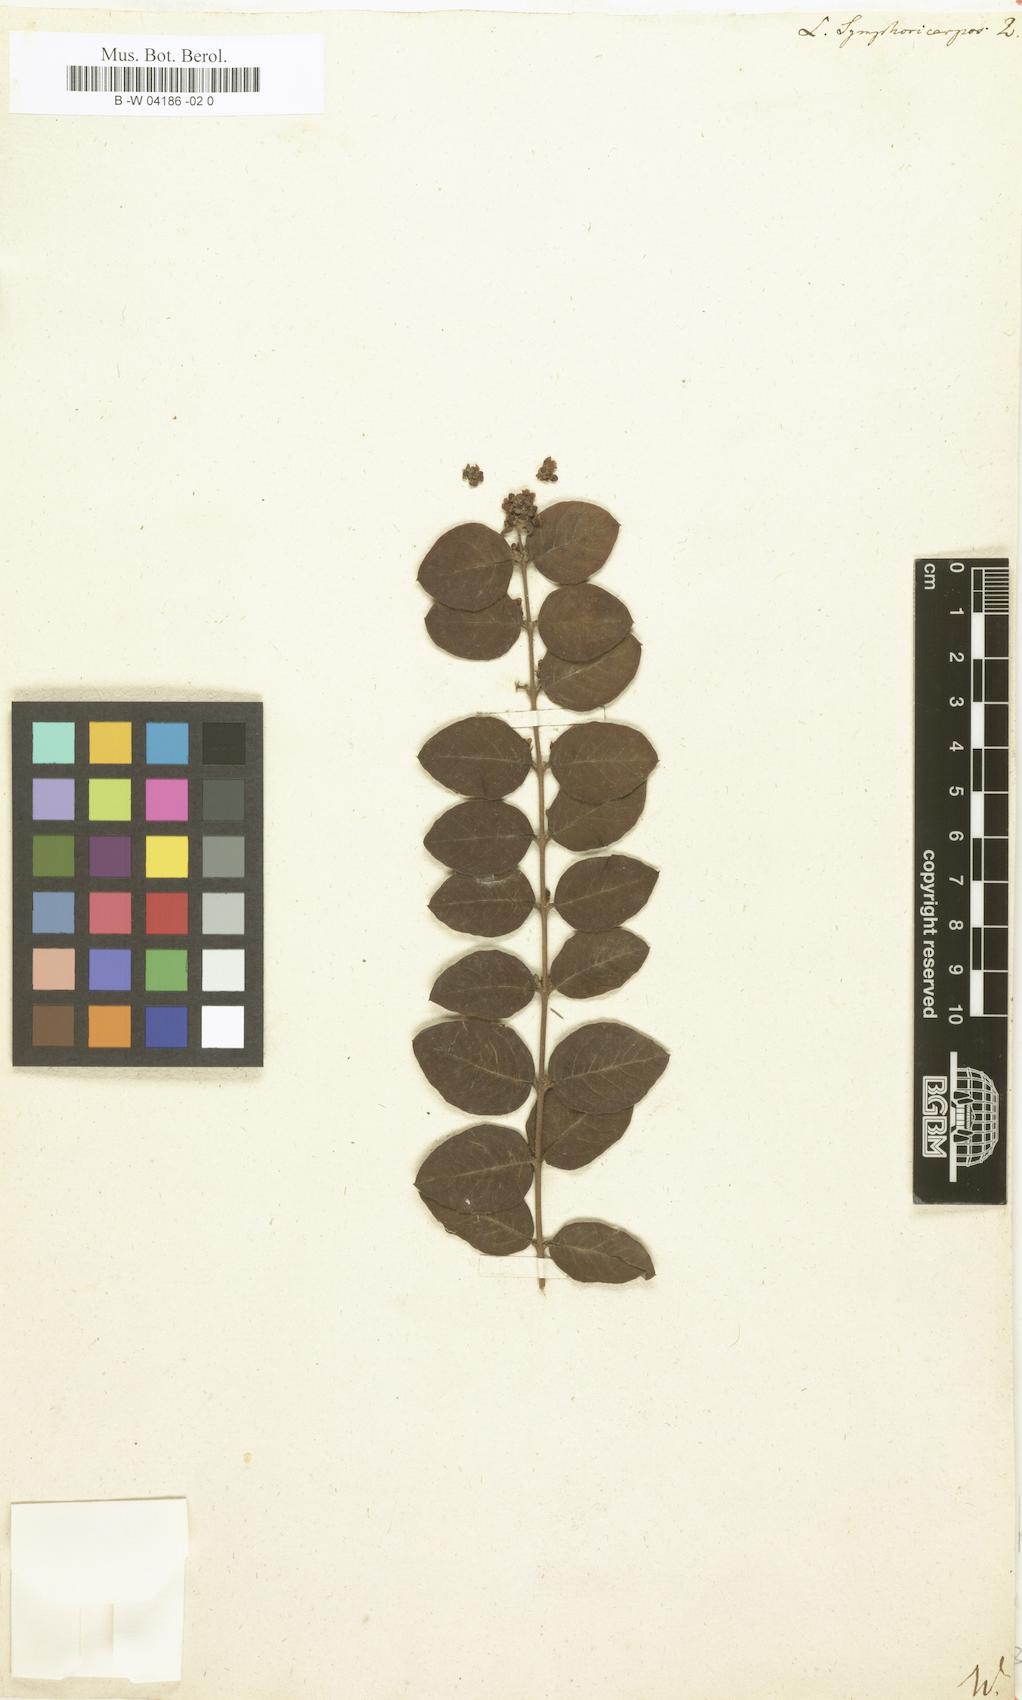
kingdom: Plantae
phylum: Tracheophyta
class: Magnoliopsida
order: Dipsacales
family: Caprifoliaceae
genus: Symphoricarpos
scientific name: Symphoricarpos orbiculatus
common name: Coralberry
